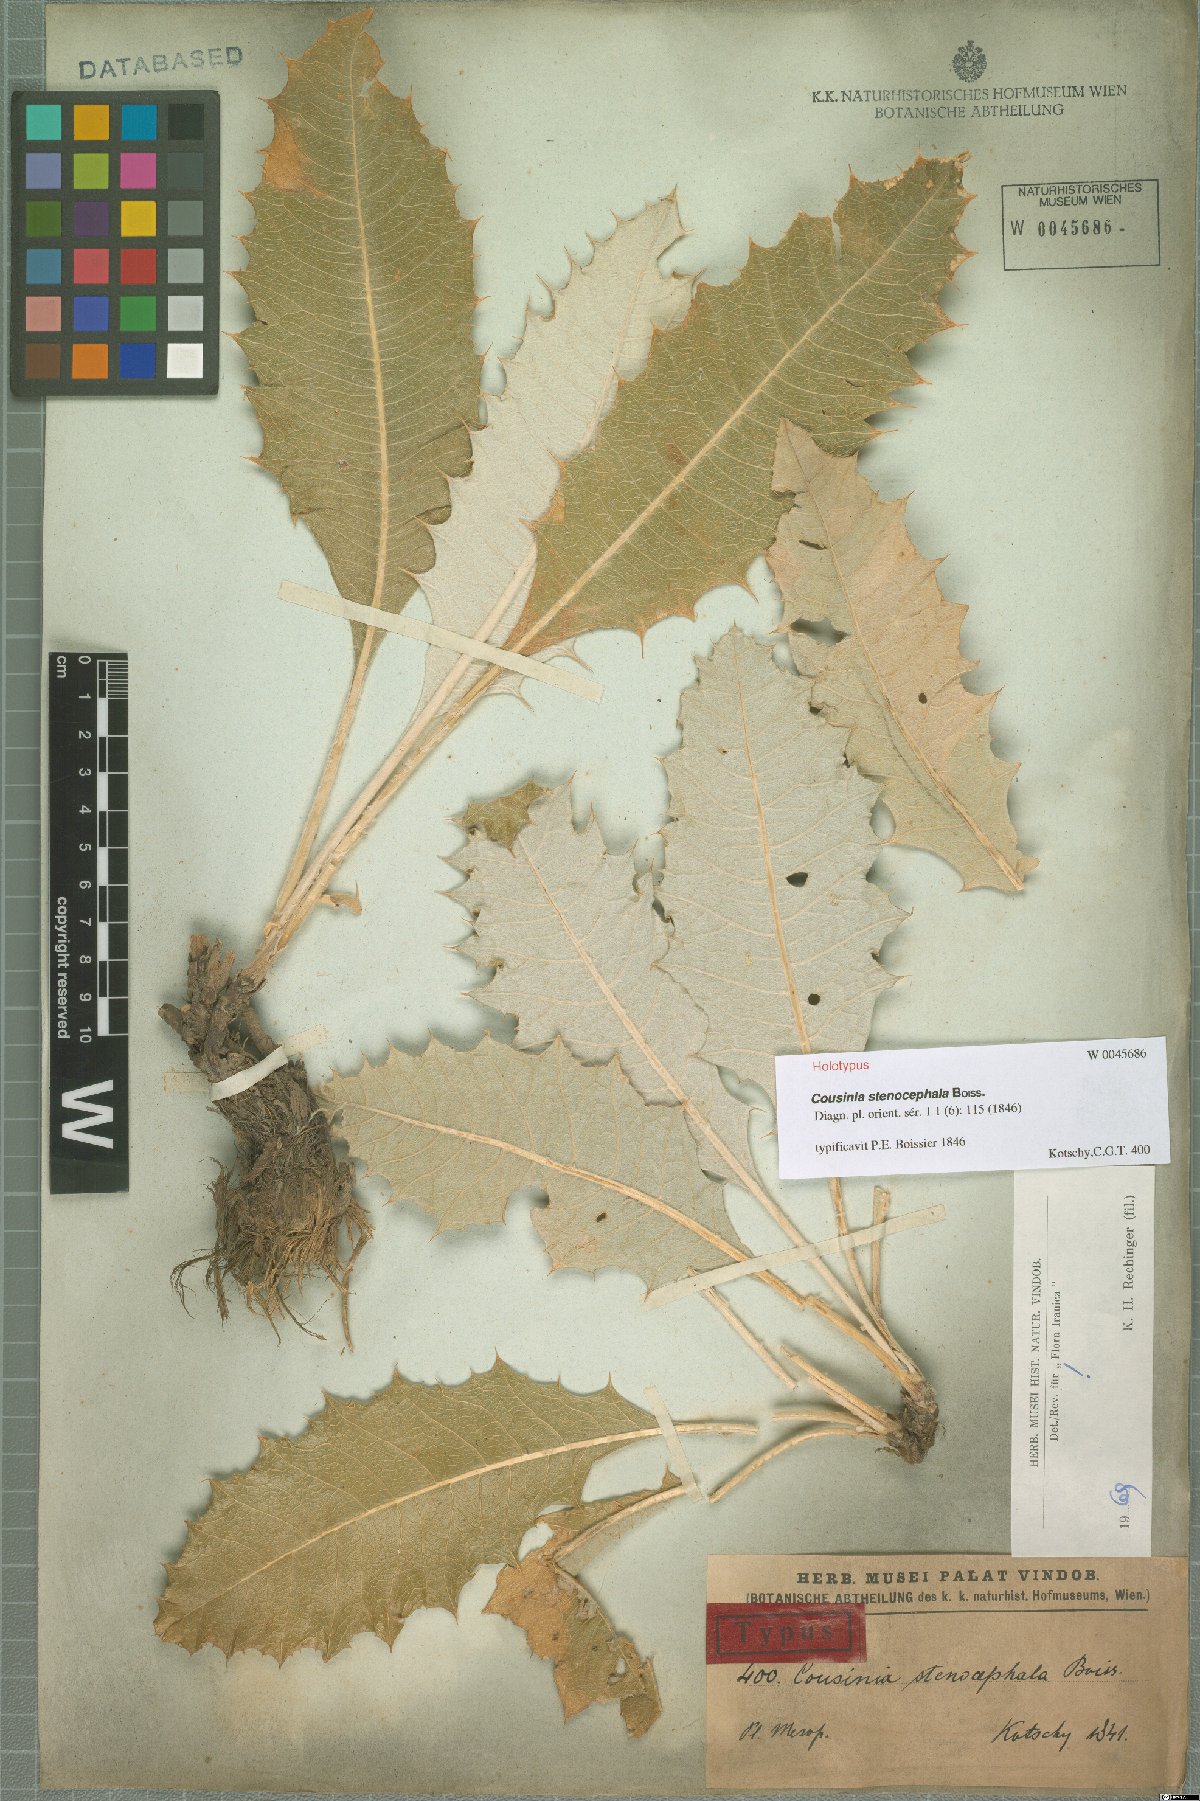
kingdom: Plantae
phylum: Tracheophyta
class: Magnoliopsida
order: Asterales
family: Asteraceae
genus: Cousinia
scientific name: Cousinia stenocephala
